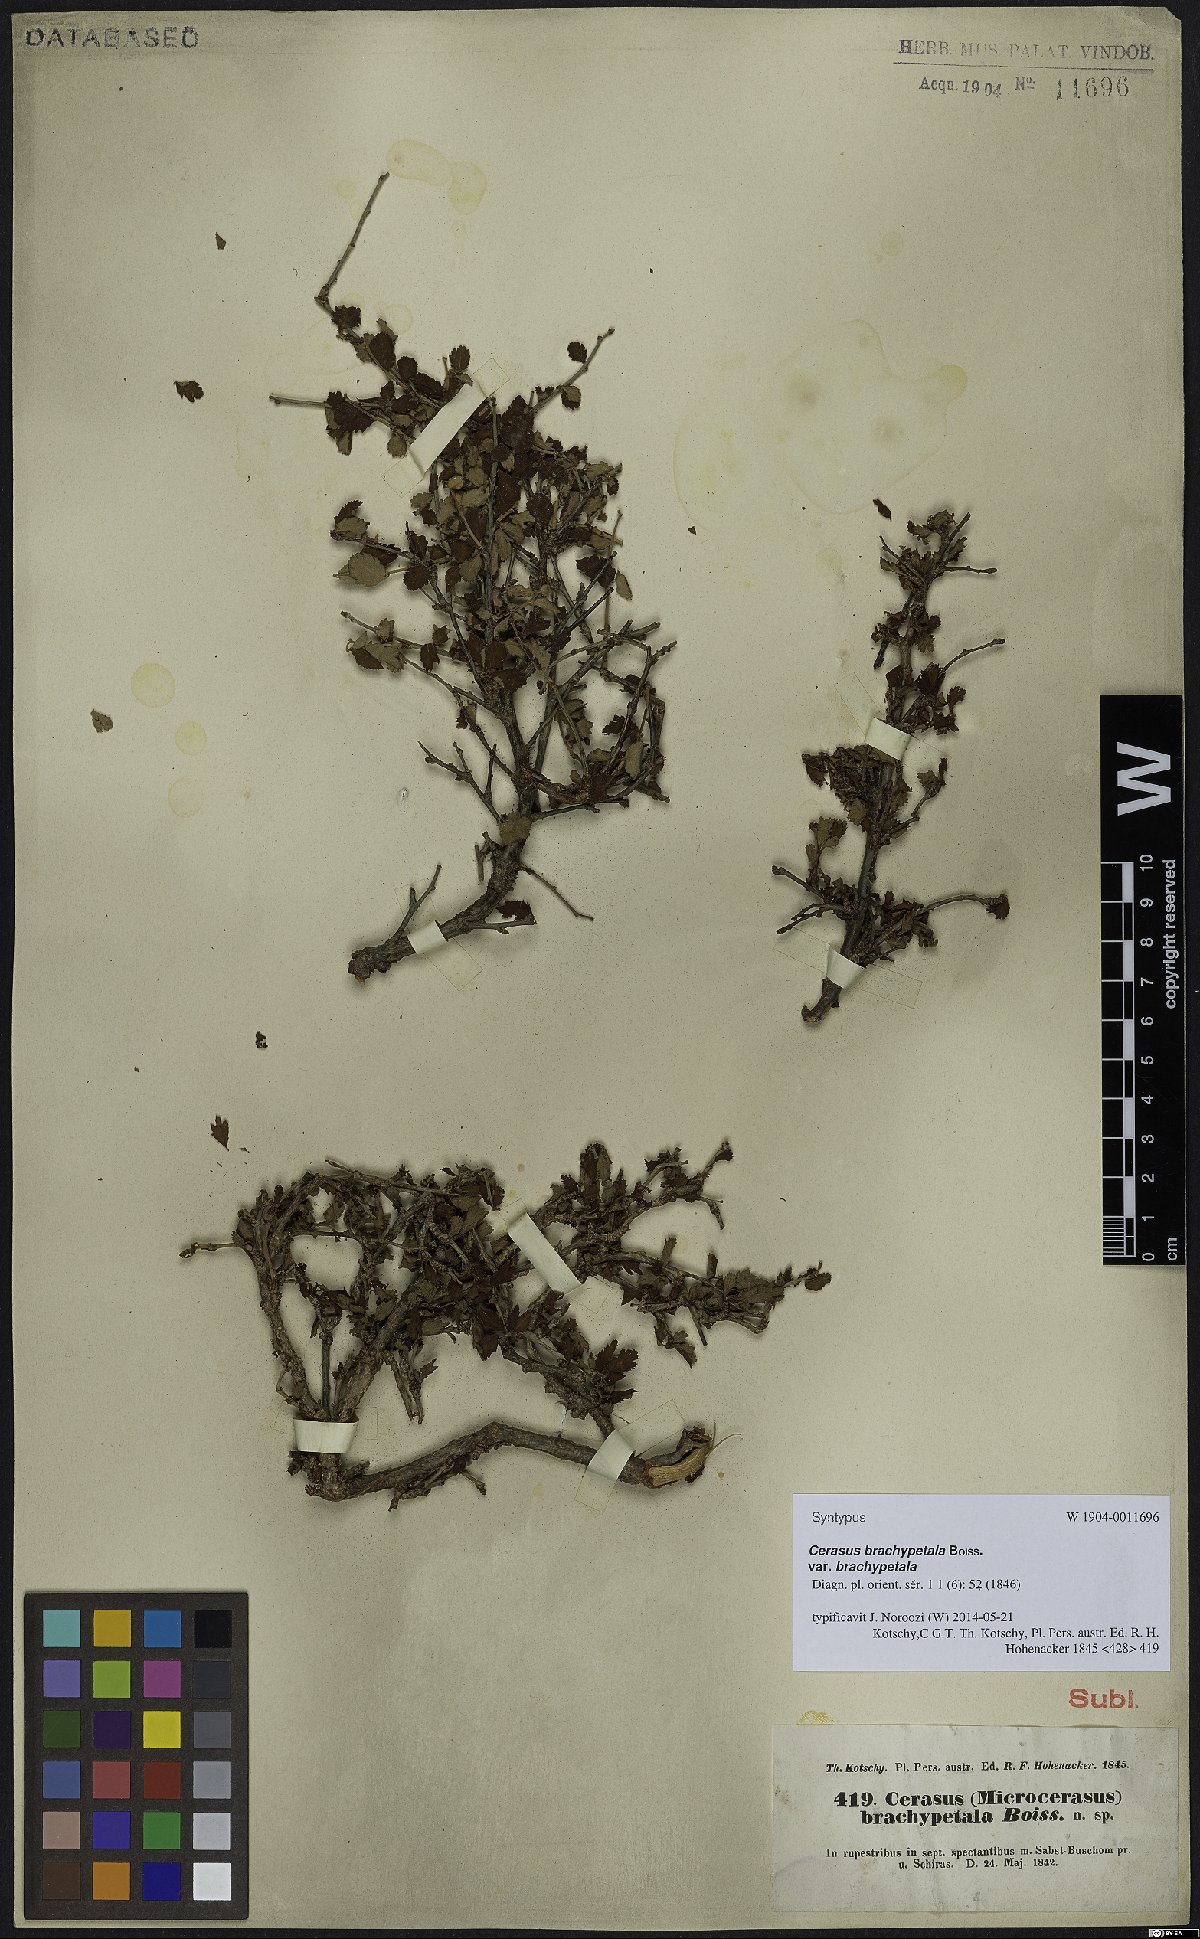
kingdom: Plantae
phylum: Tracheophyta
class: Magnoliopsida
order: Rosales
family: Rosaceae
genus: Prunus
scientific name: Prunus brachypetala
